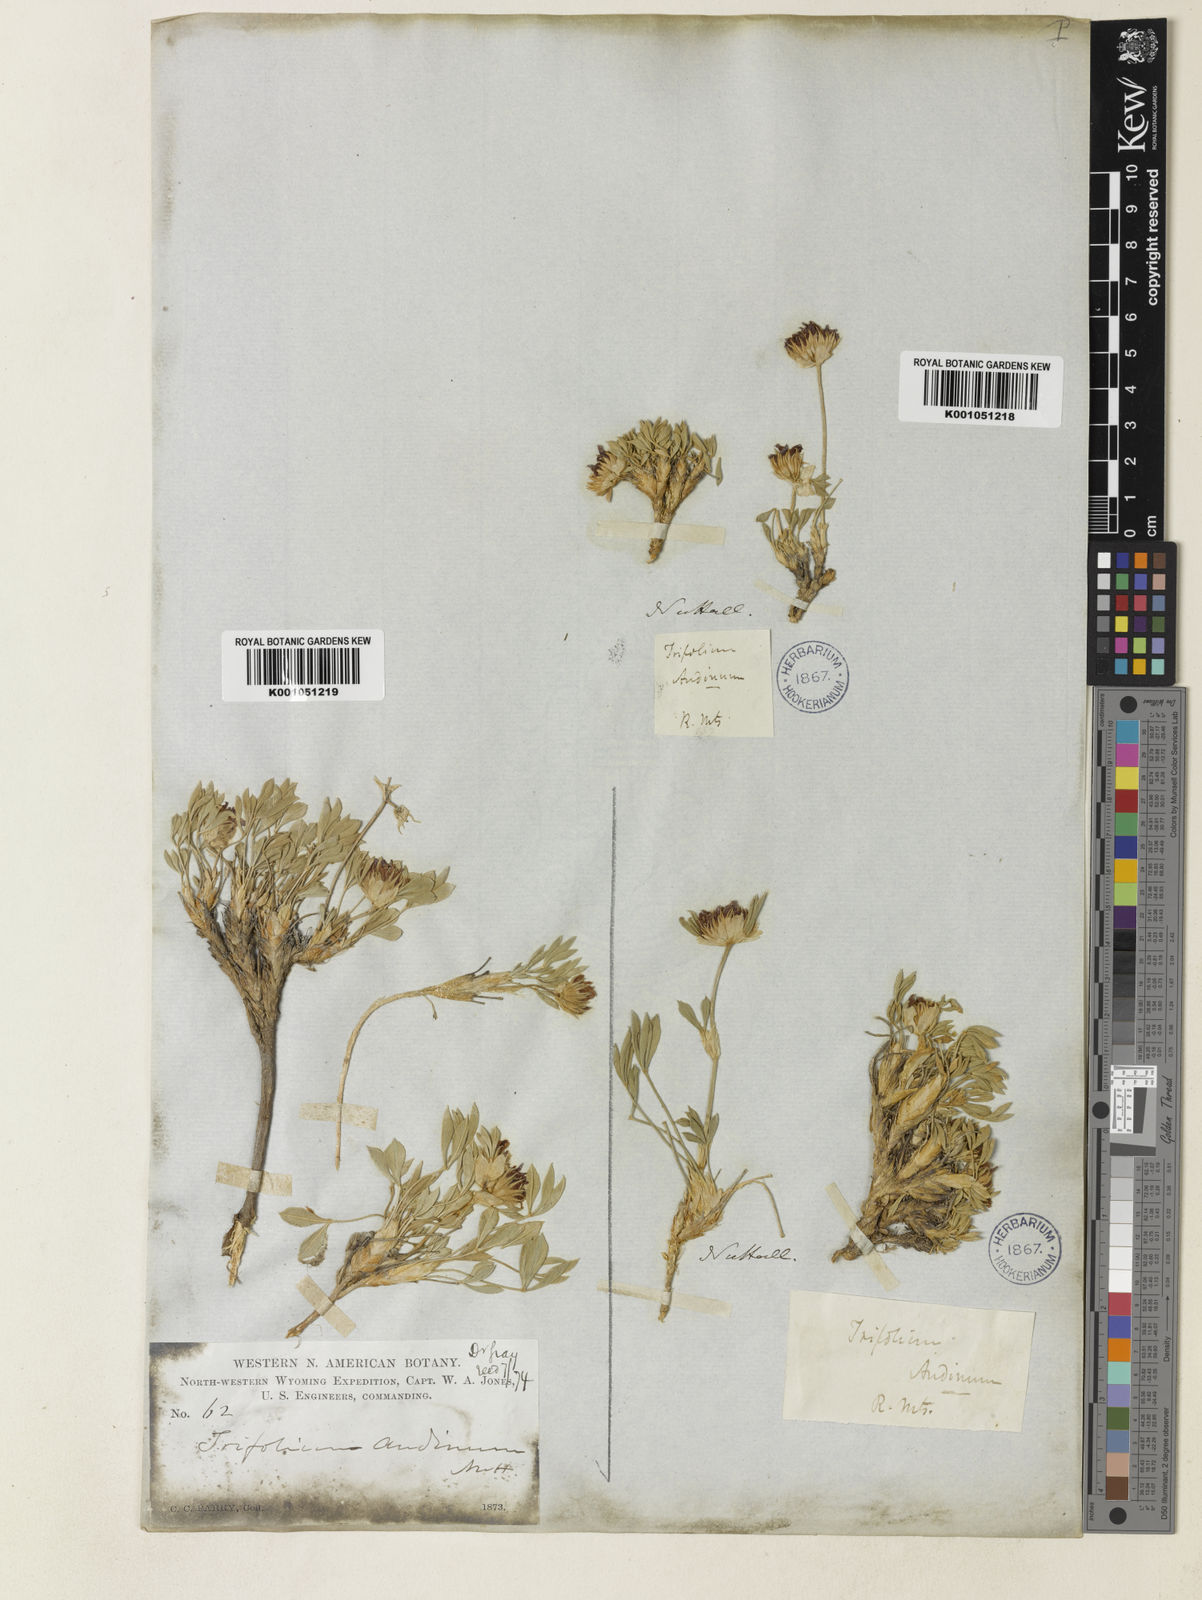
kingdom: Plantae
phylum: Tracheophyta
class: Magnoliopsida
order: Fabales
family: Fabaceae
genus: Trifolium
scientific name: Trifolium andinum
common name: Andean clover
